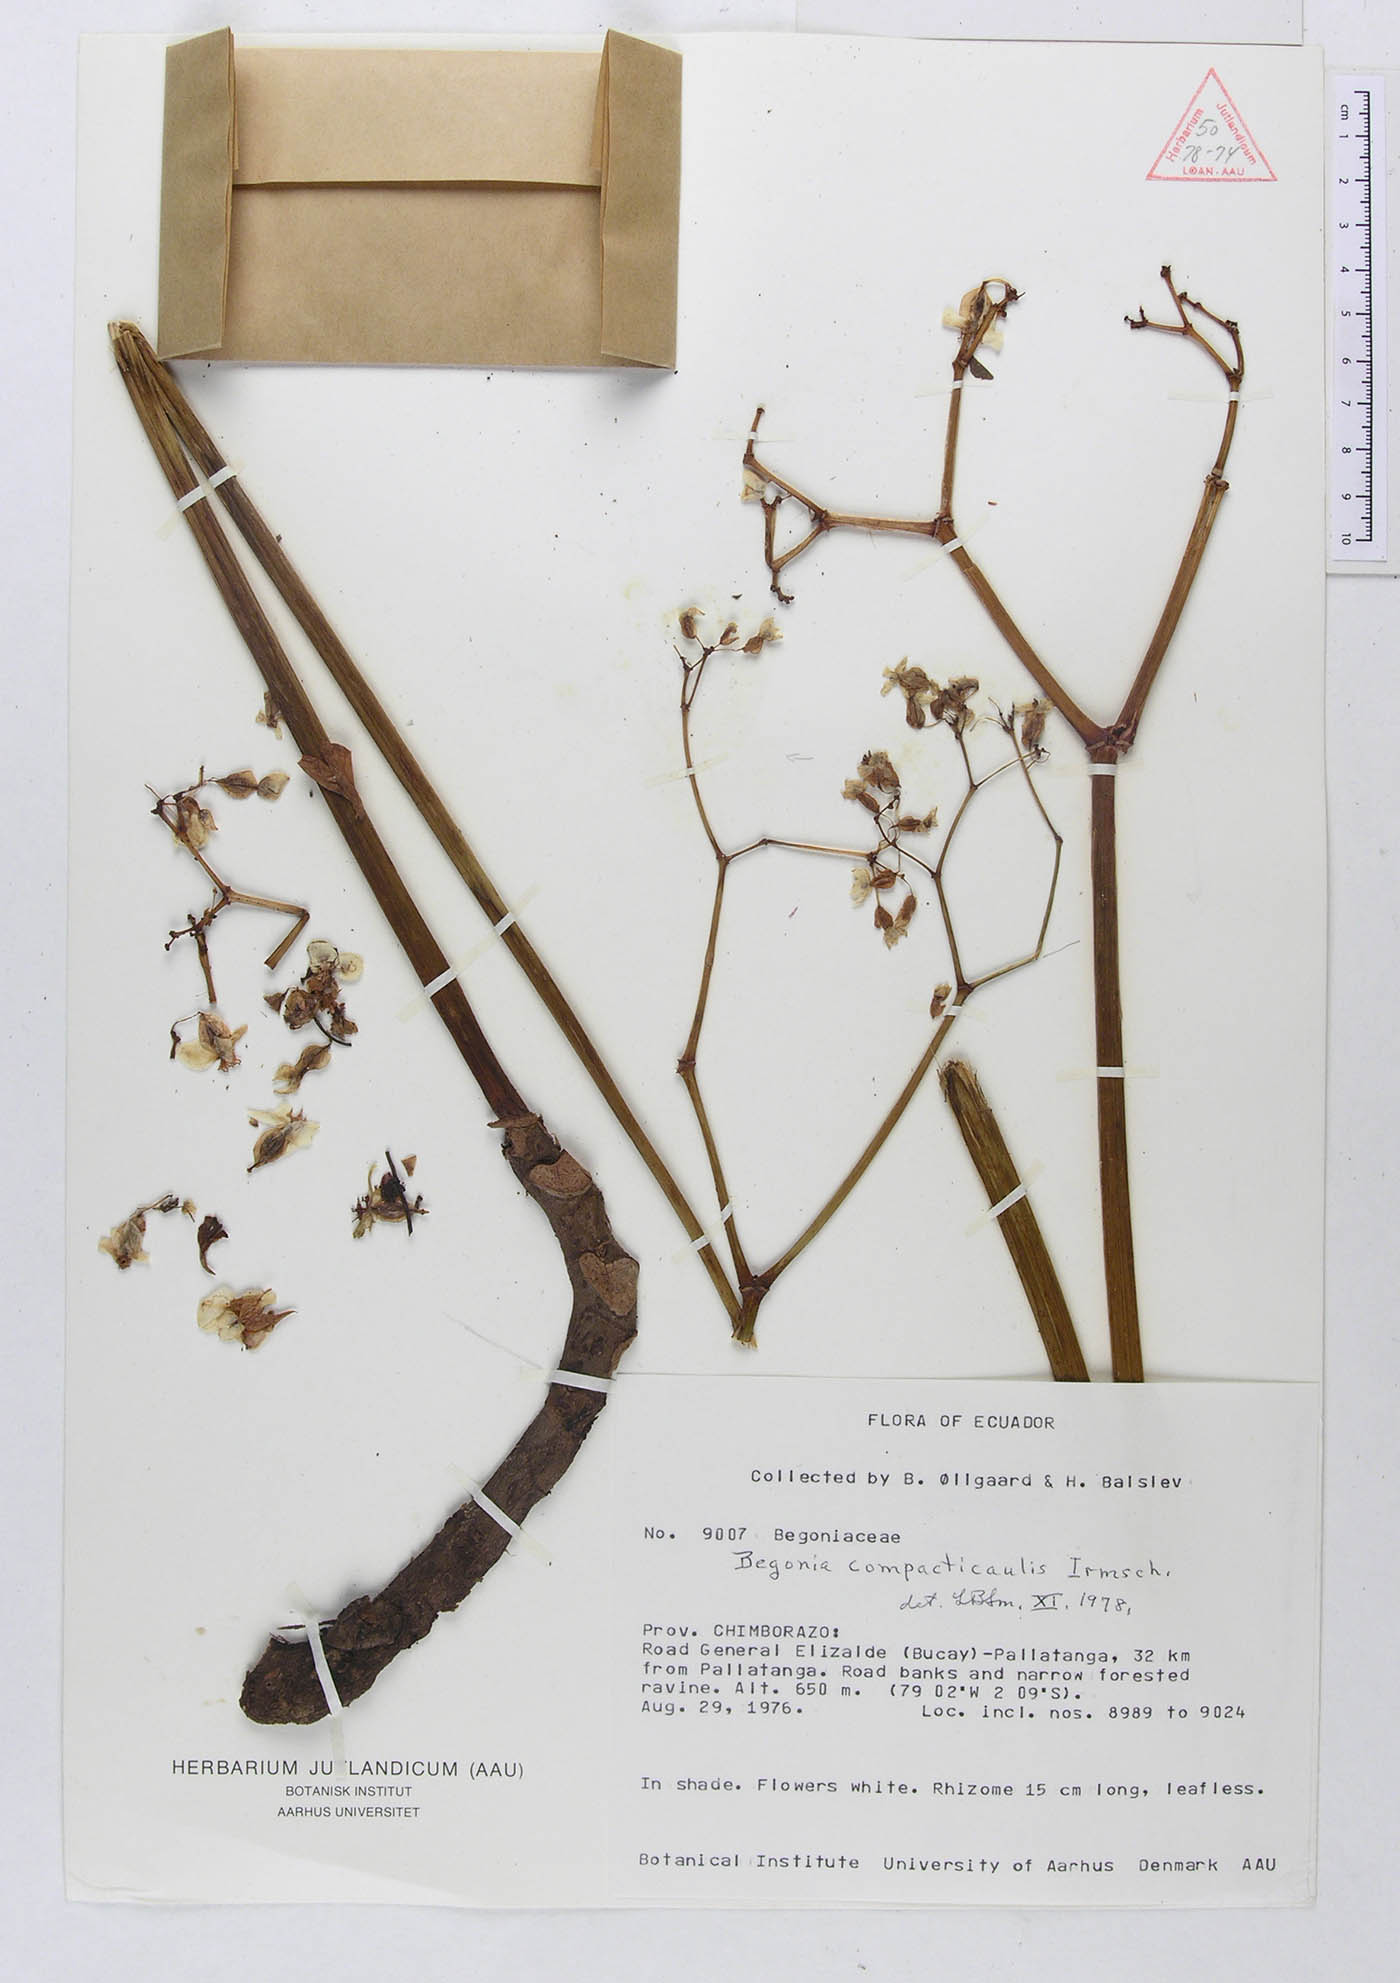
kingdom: Plantae
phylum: Tracheophyta
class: Magnoliopsida
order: Cucurbitales
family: Begoniaceae
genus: Begonia
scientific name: Begonia ludwigii
